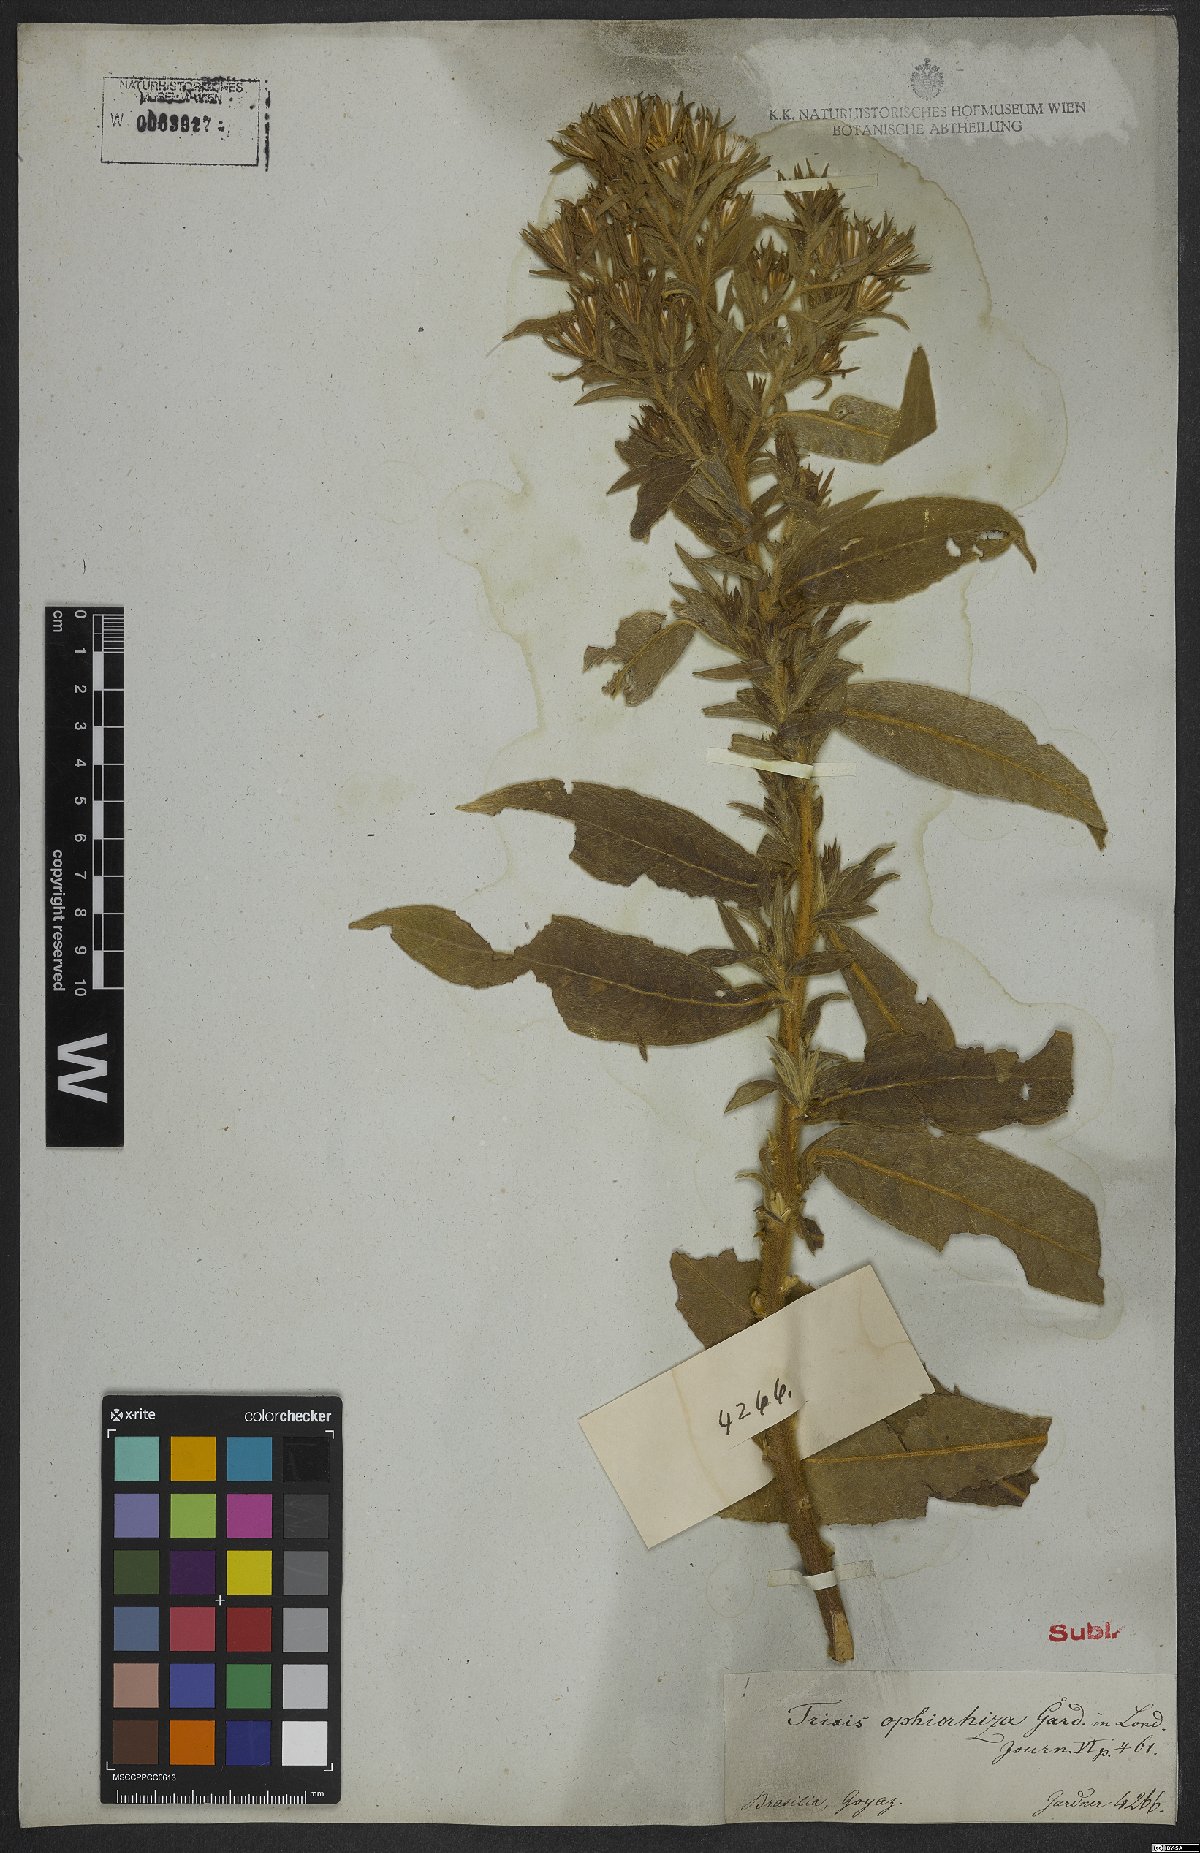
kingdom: Plantae
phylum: Tracheophyta
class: Magnoliopsida
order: Asterales
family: Asteraceae
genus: Trixis
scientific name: Trixis ophiorhiza
